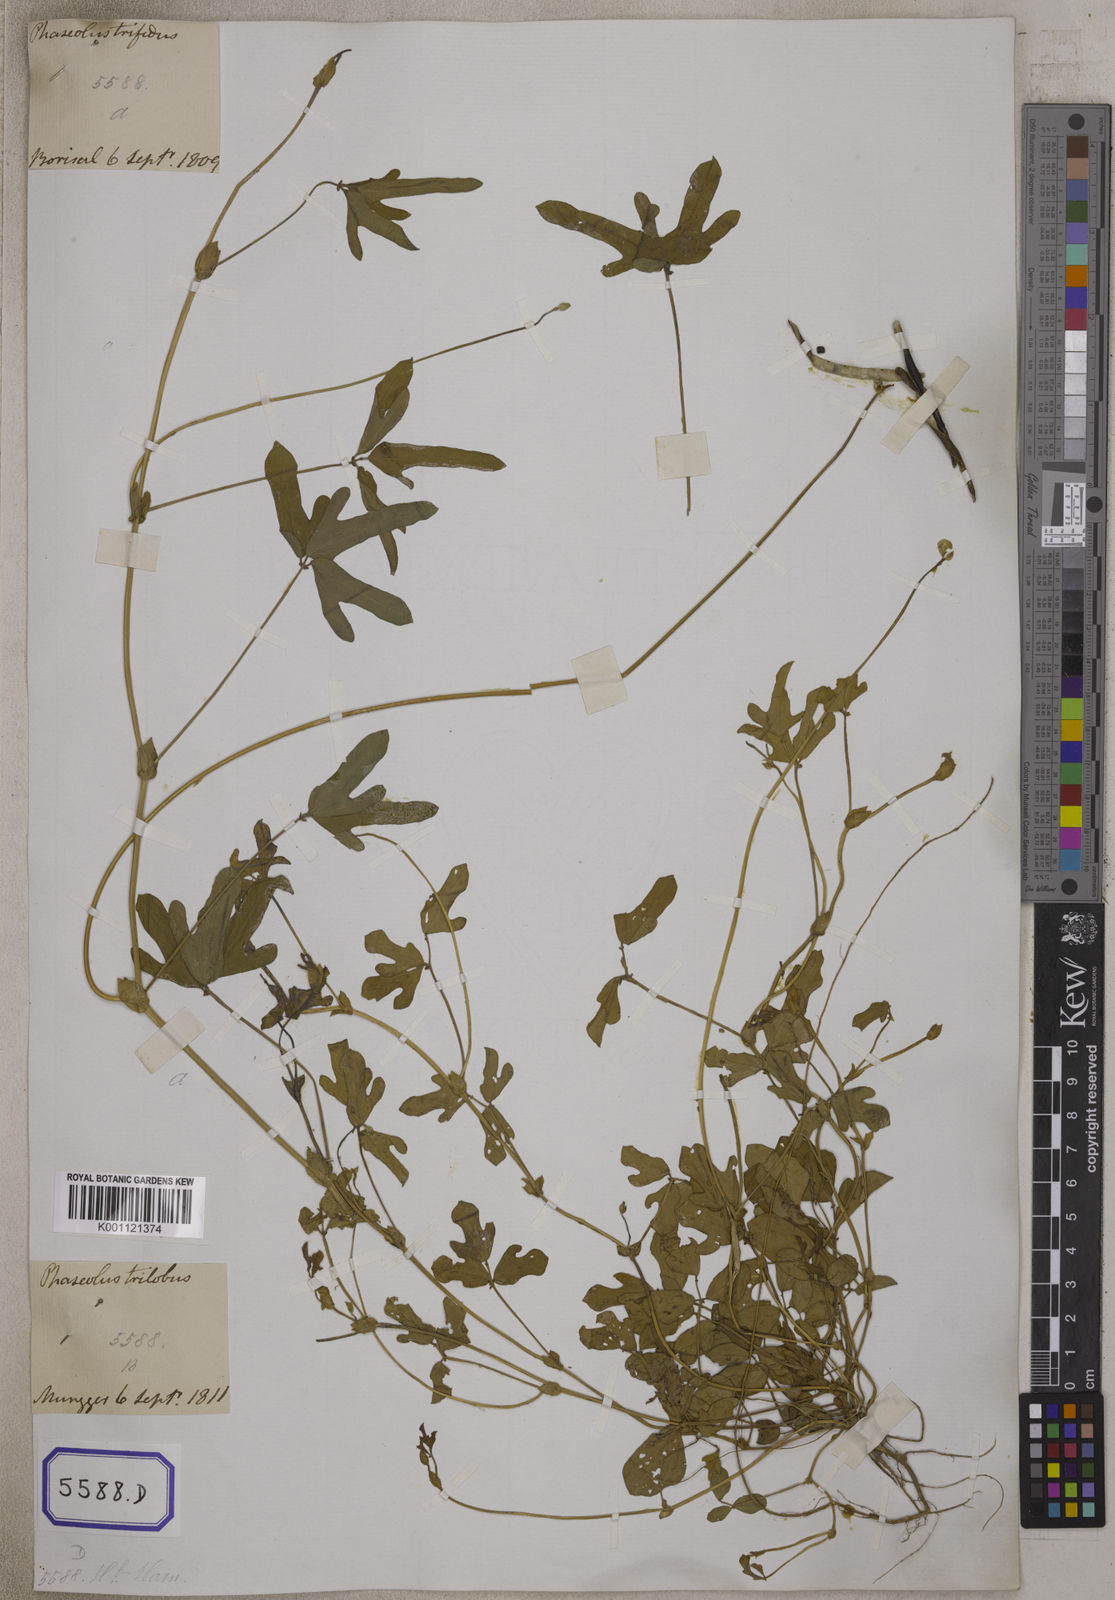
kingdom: Plantae
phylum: Tracheophyta
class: Magnoliopsida
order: Fabales
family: Fabaceae
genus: Phaseolus
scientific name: Phaseolus
